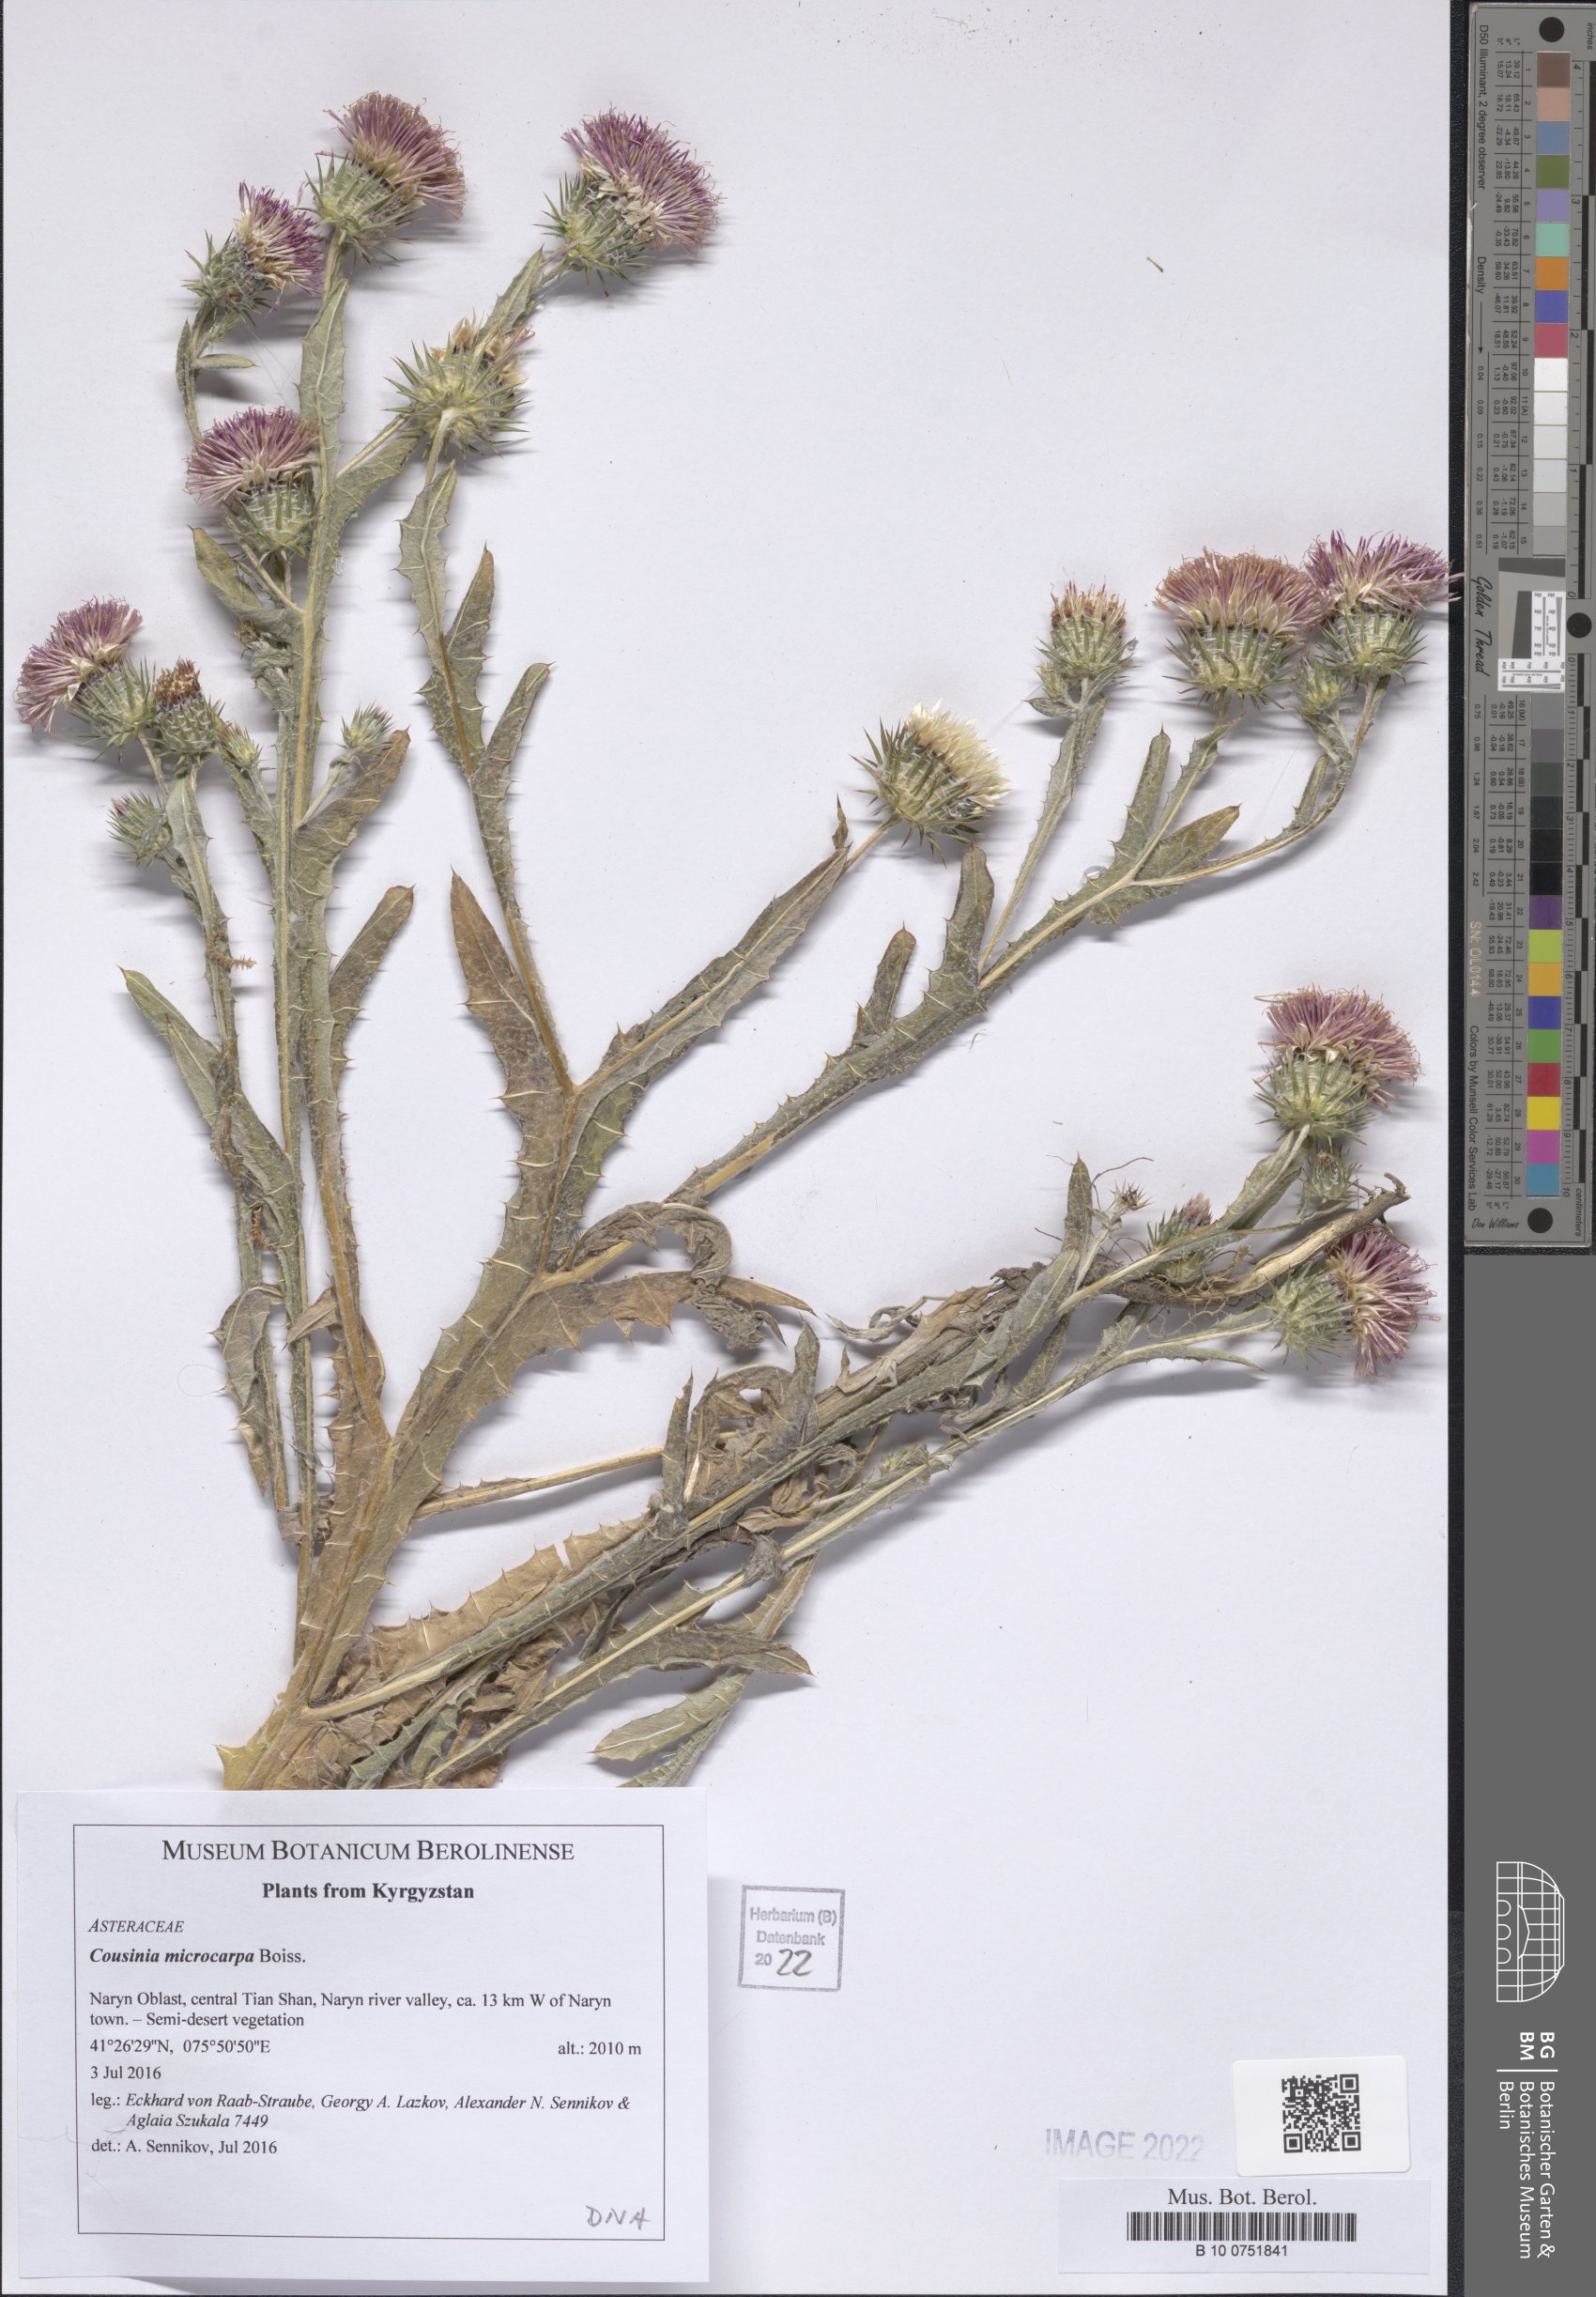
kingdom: Plantae
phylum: Tracheophyta
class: Magnoliopsida
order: Asterales
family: Asteraceae
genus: Cousinia
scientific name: Cousinia microcarpa
